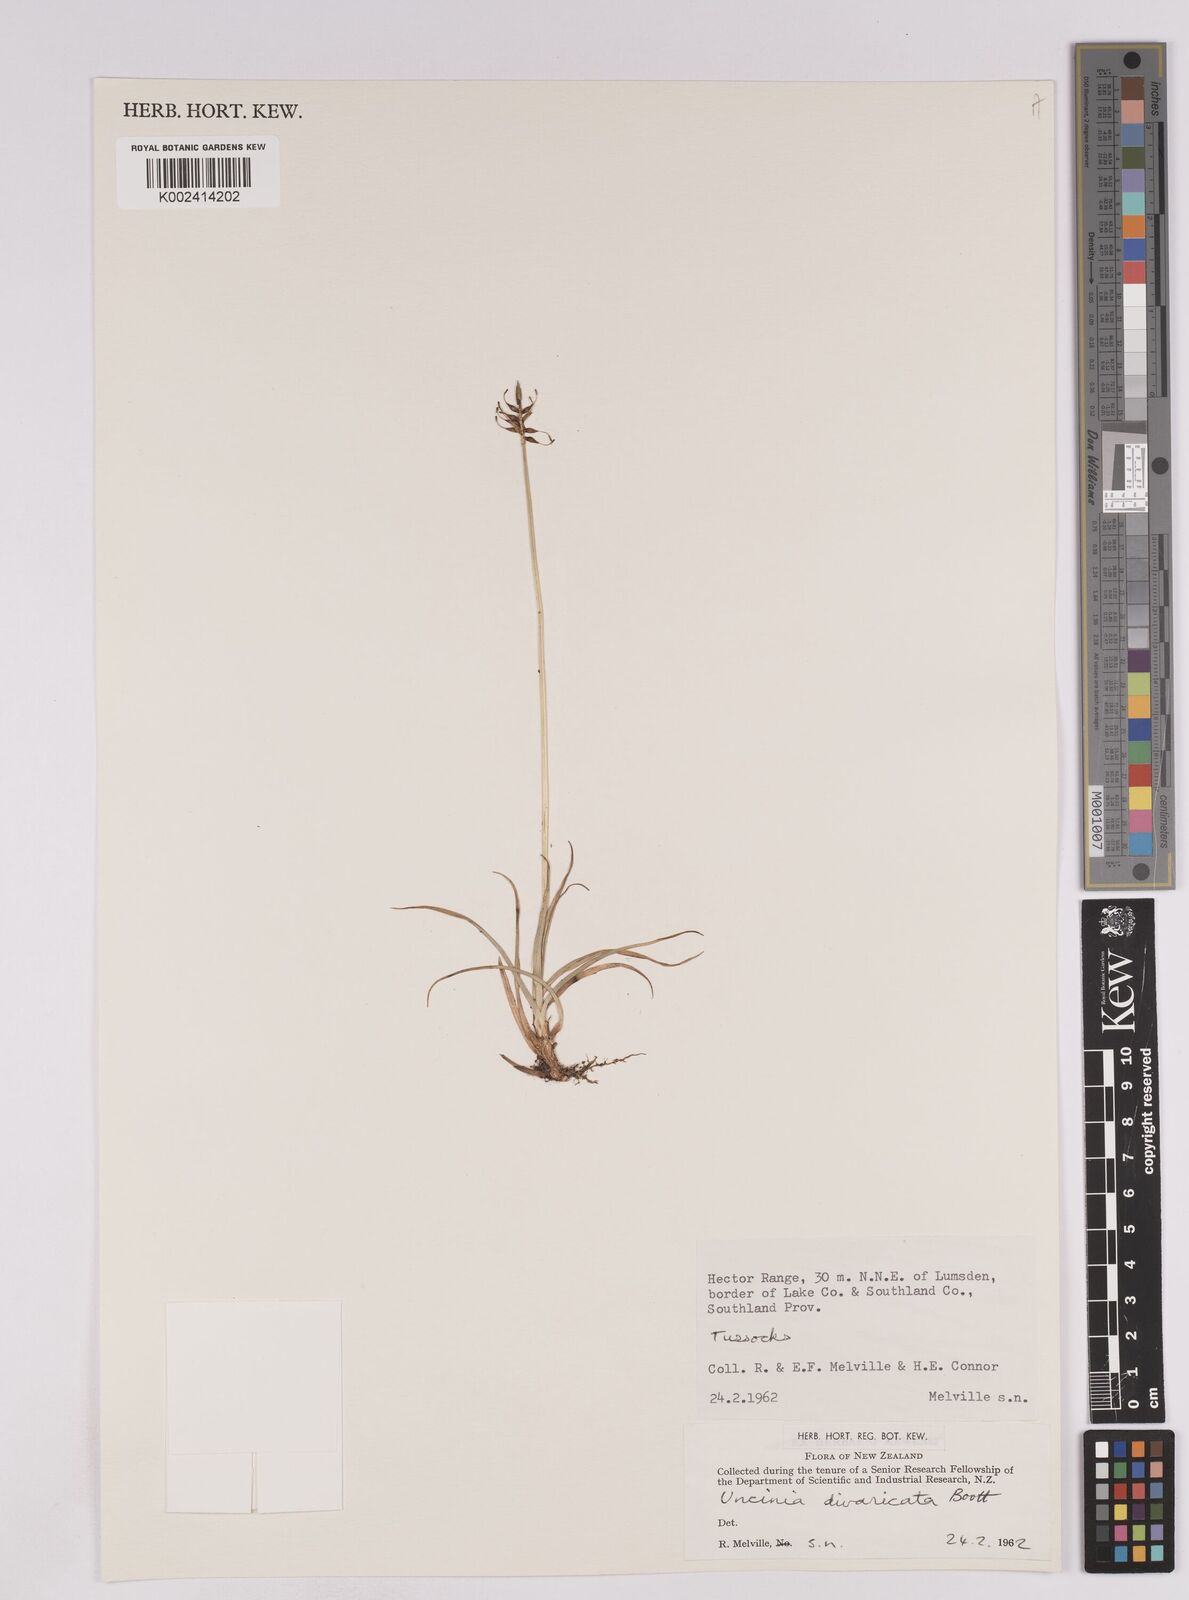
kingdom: Plantae
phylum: Tracheophyta
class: Liliopsida
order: Poales
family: Cyperaceae
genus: Carex
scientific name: Carex austrocompacta
